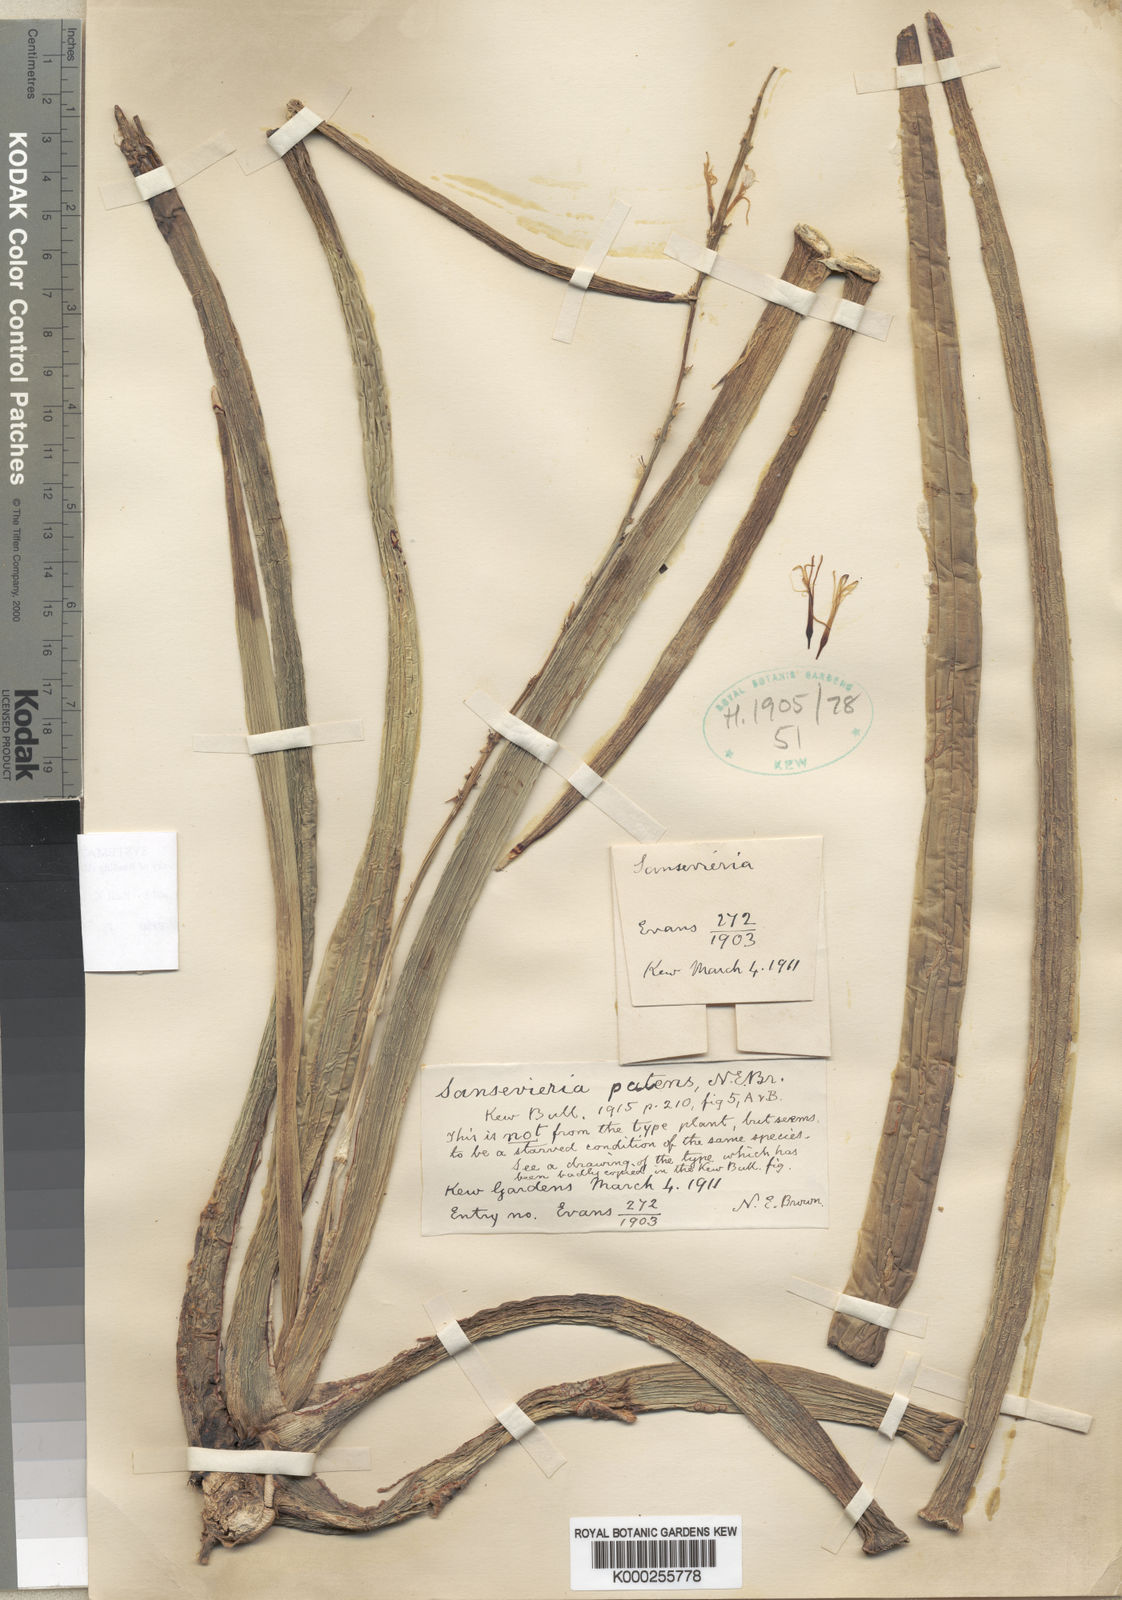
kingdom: Plantae
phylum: Tracheophyta
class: Liliopsida
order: Asparagales
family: Asparagaceae
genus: Dracaena
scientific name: Dracaena varians
